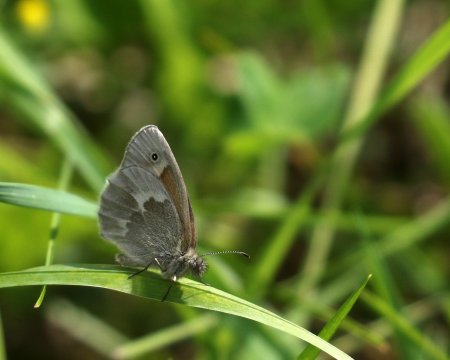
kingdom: Animalia
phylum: Arthropoda
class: Insecta
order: Lepidoptera
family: Nymphalidae
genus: Coenonympha
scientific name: Coenonympha tullia
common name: Large Heath
